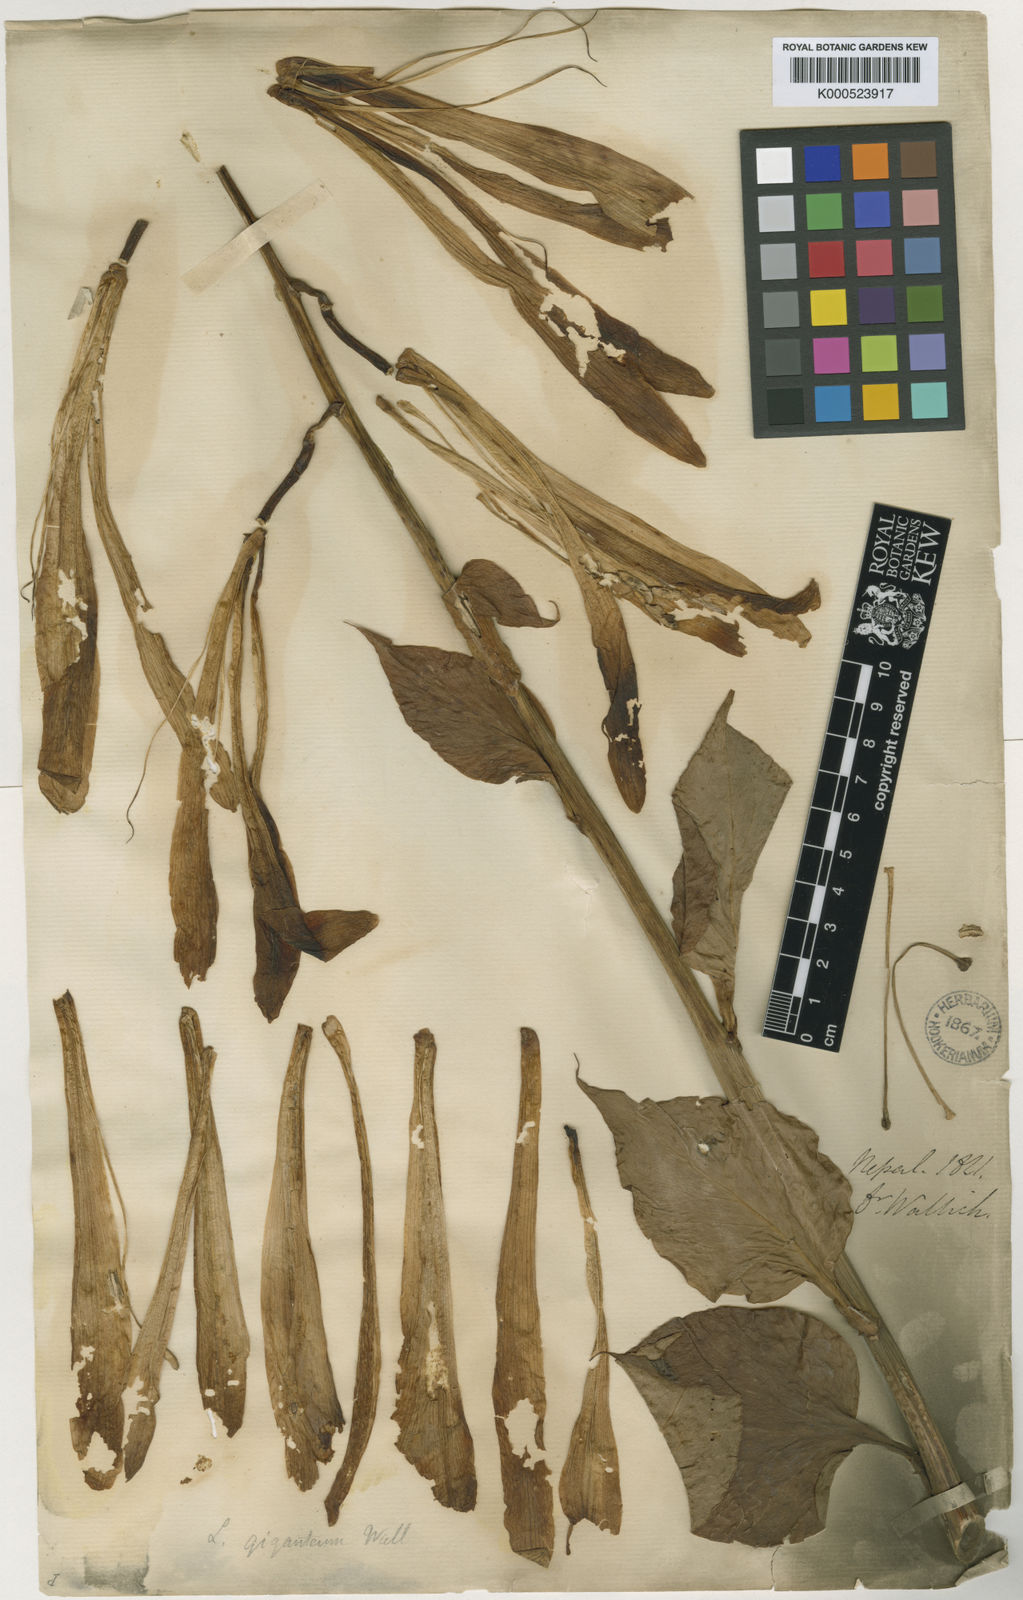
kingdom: Plantae
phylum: Tracheophyta
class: Liliopsida
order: Liliales
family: Liliaceae
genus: Cardiocrinum
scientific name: Cardiocrinum giganteum
